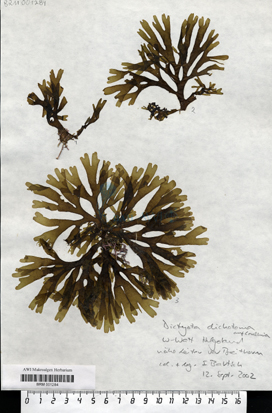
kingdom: Chromista
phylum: Ochrophyta
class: Phaeophyceae
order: Dictyotales
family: Dictyotaceae
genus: Dictyota
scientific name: Dictyota dichotoma
